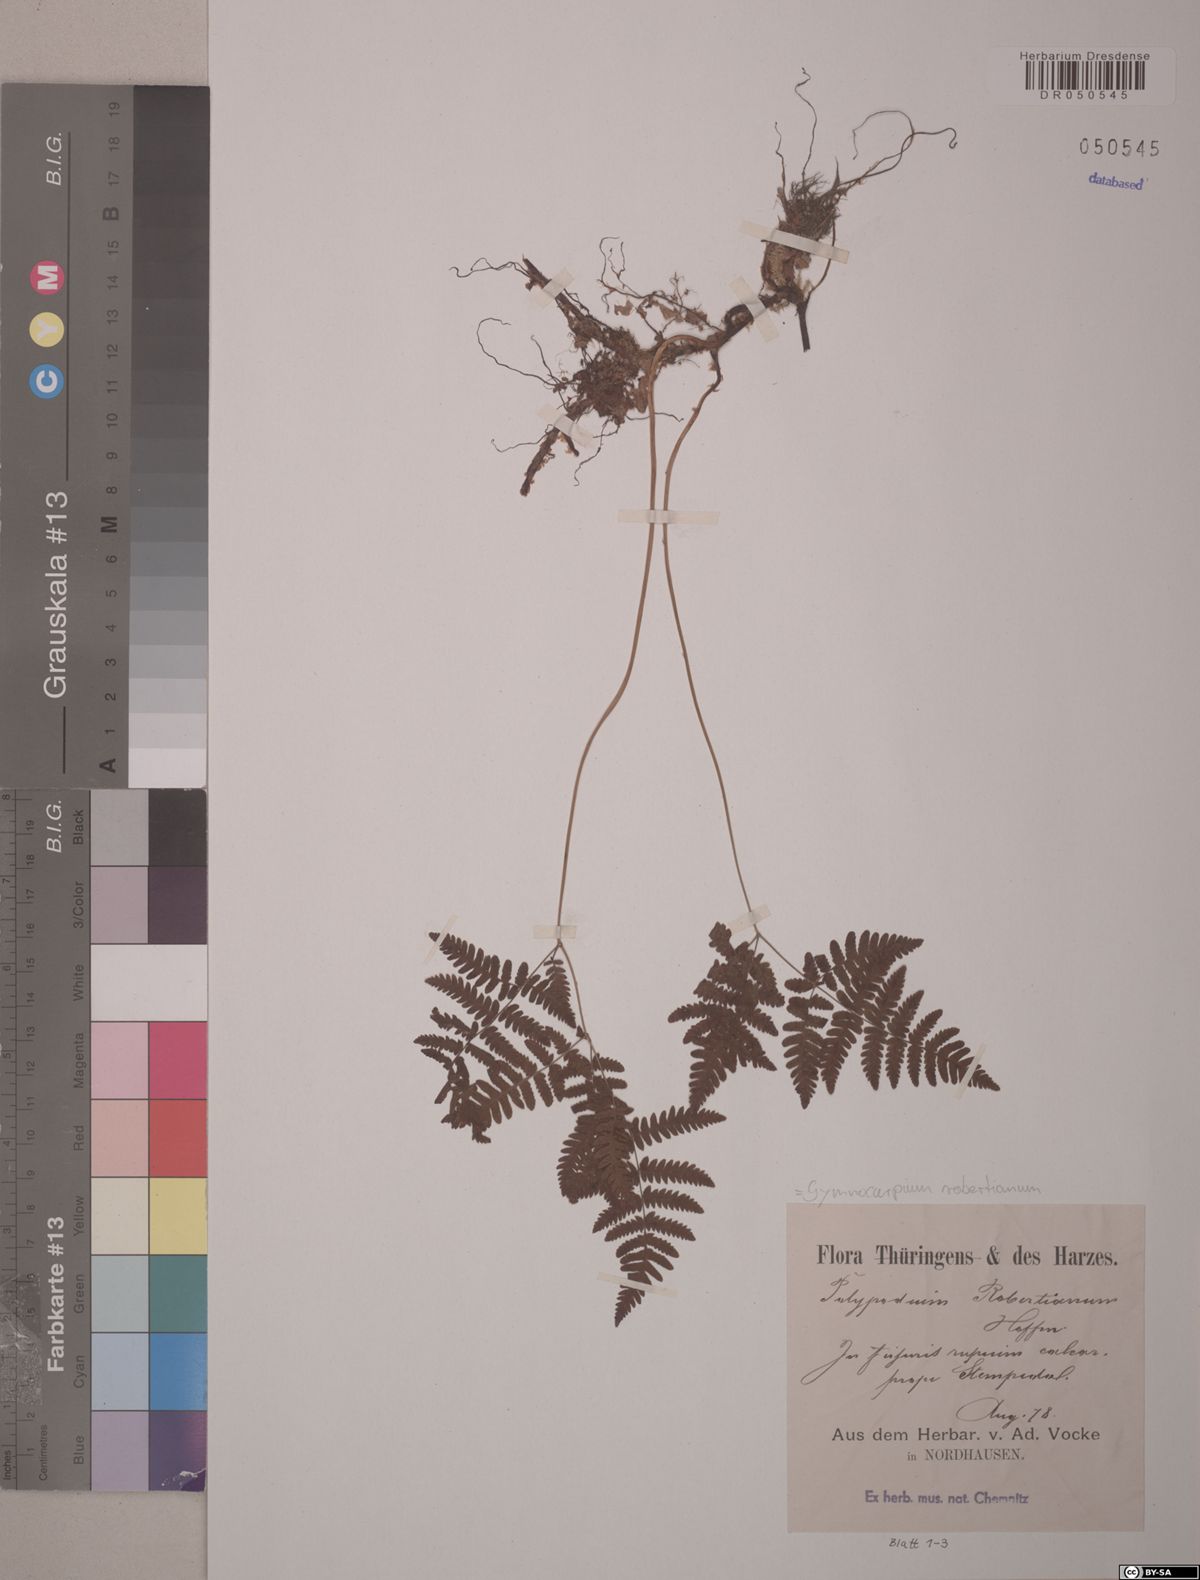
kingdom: Plantae
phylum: Tracheophyta
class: Polypodiopsida
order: Polypodiales
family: Cystopteridaceae
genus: Gymnocarpium
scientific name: Gymnocarpium robertianum
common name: Limestone fern
